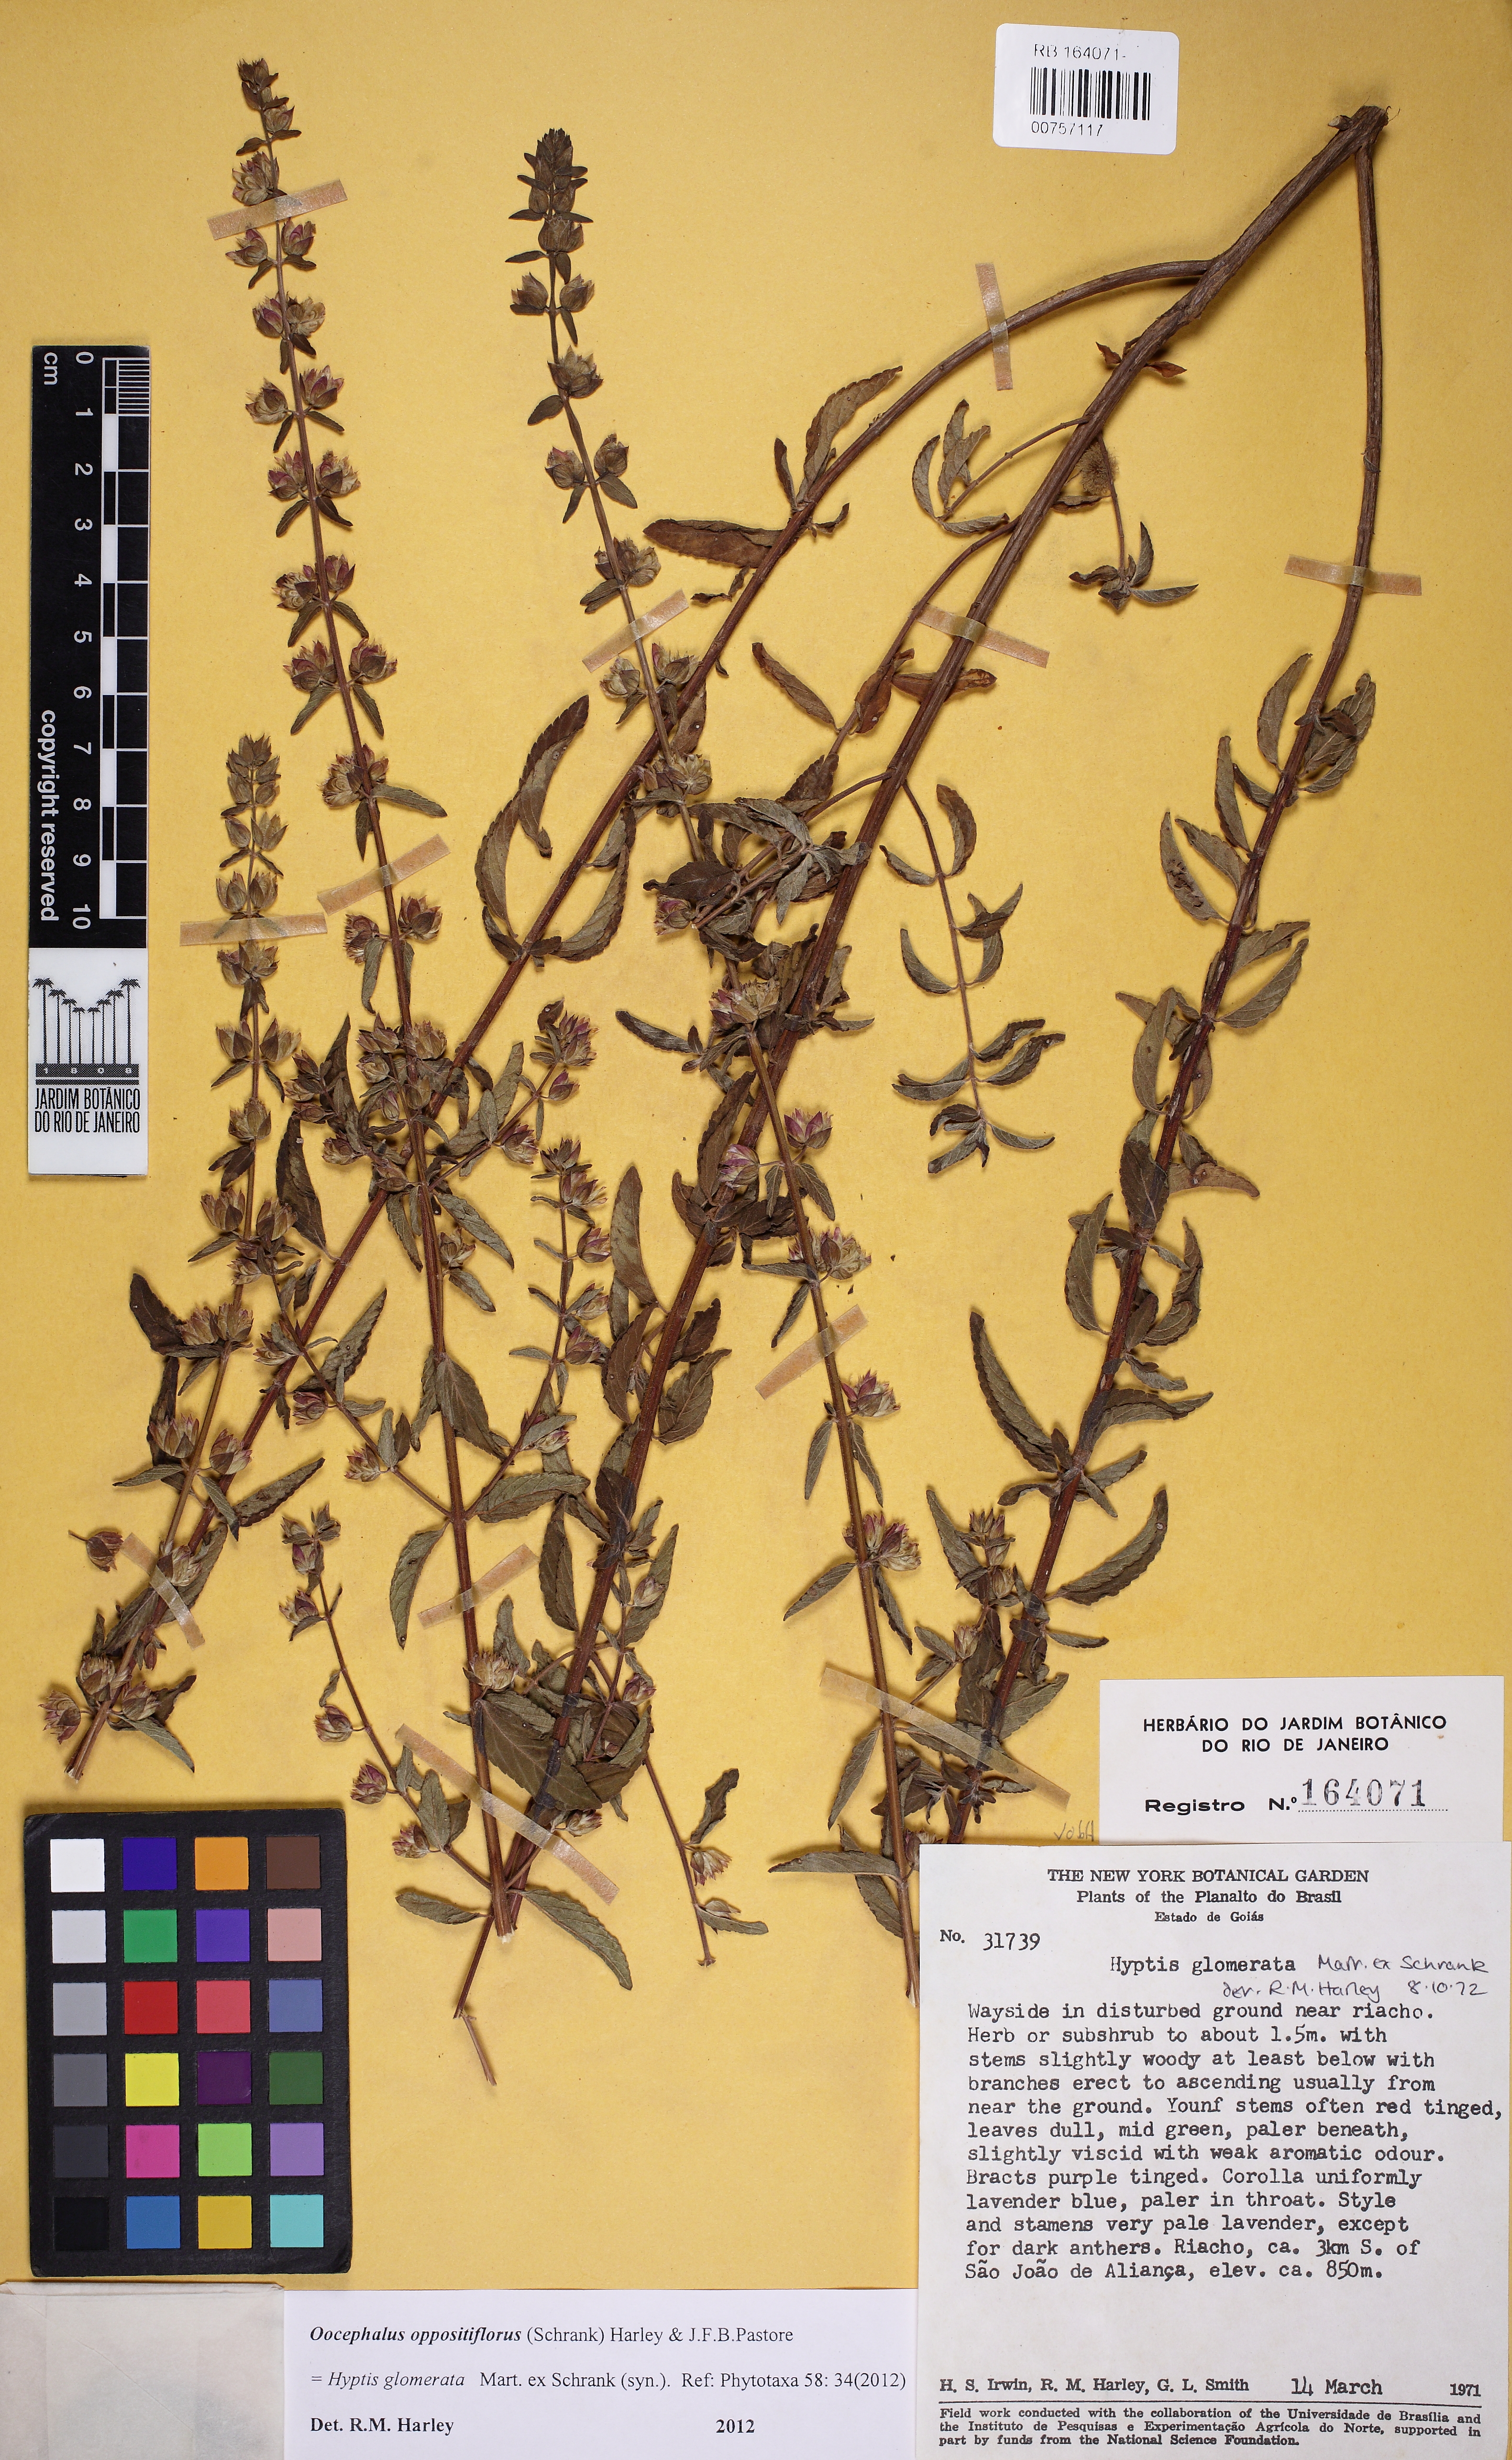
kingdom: Plantae
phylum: Tracheophyta
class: Magnoliopsida
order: Lamiales
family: Lamiaceae
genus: Oocephalus
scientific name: Oocephalus oppositiflorus
